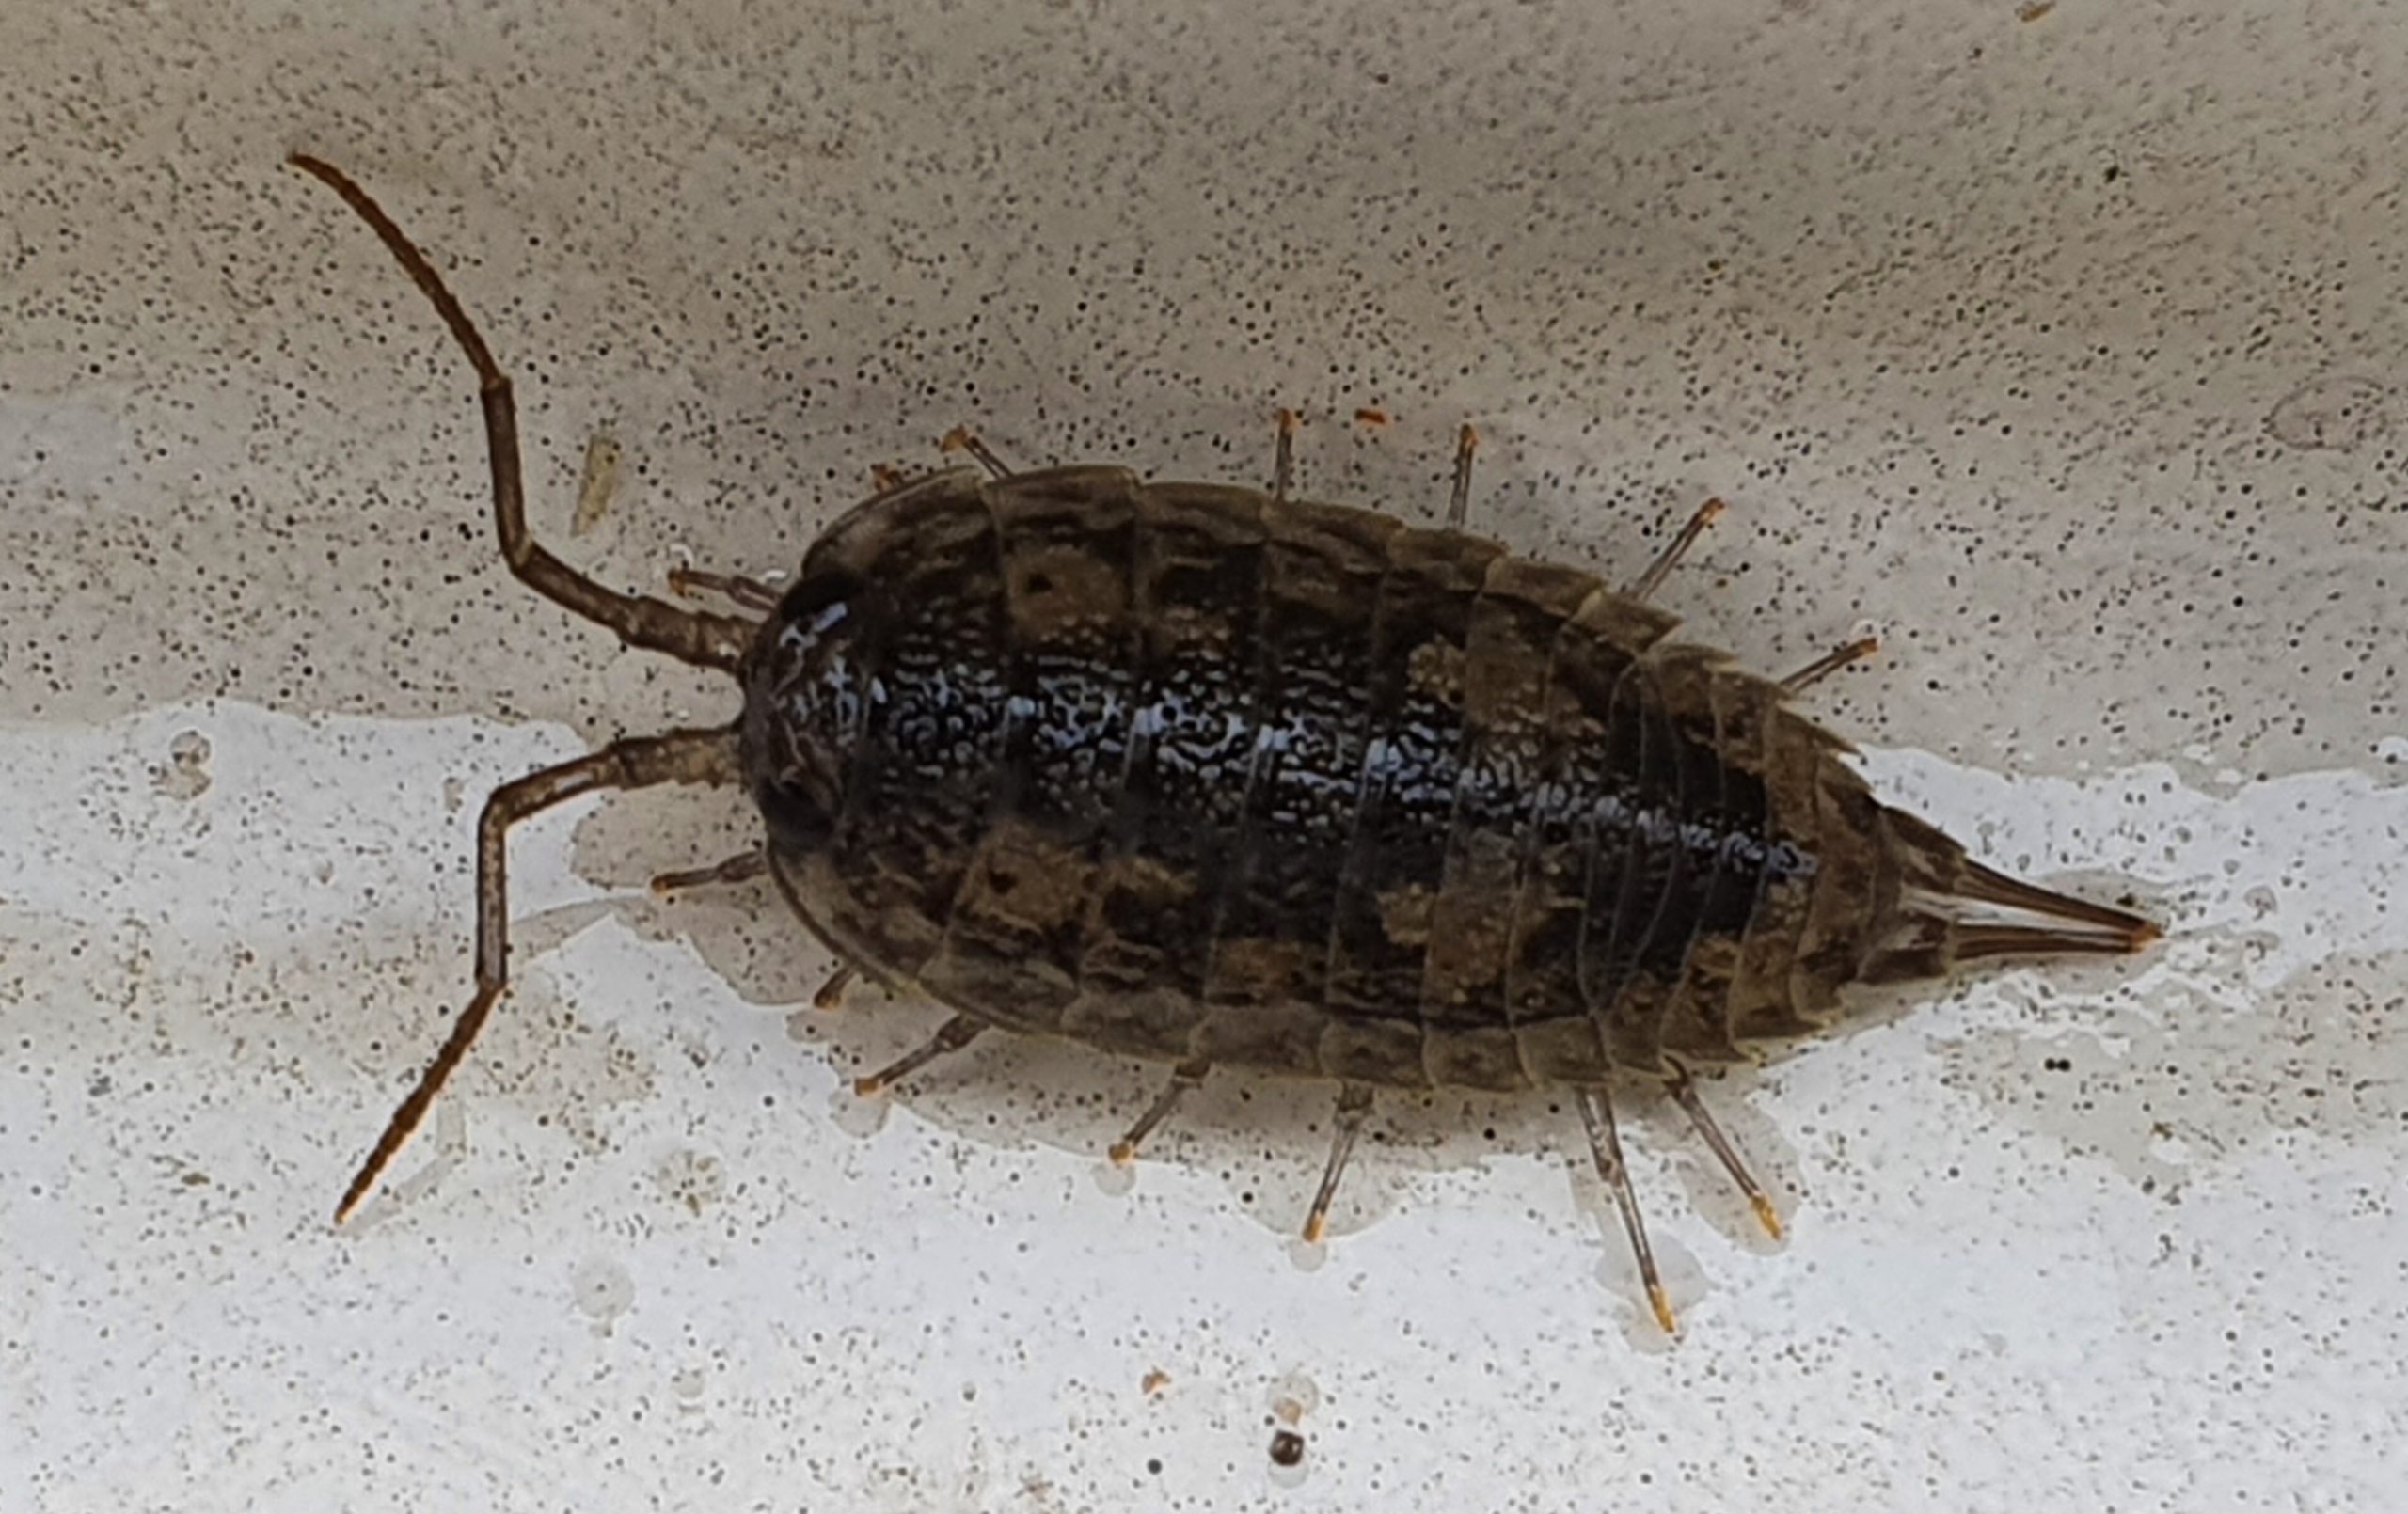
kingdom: Animalia
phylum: Arthropoda
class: Malacostraca
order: Isopoda
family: Ligiidae
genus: Ligia
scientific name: Ligia oceanica
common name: Havbænkebider
